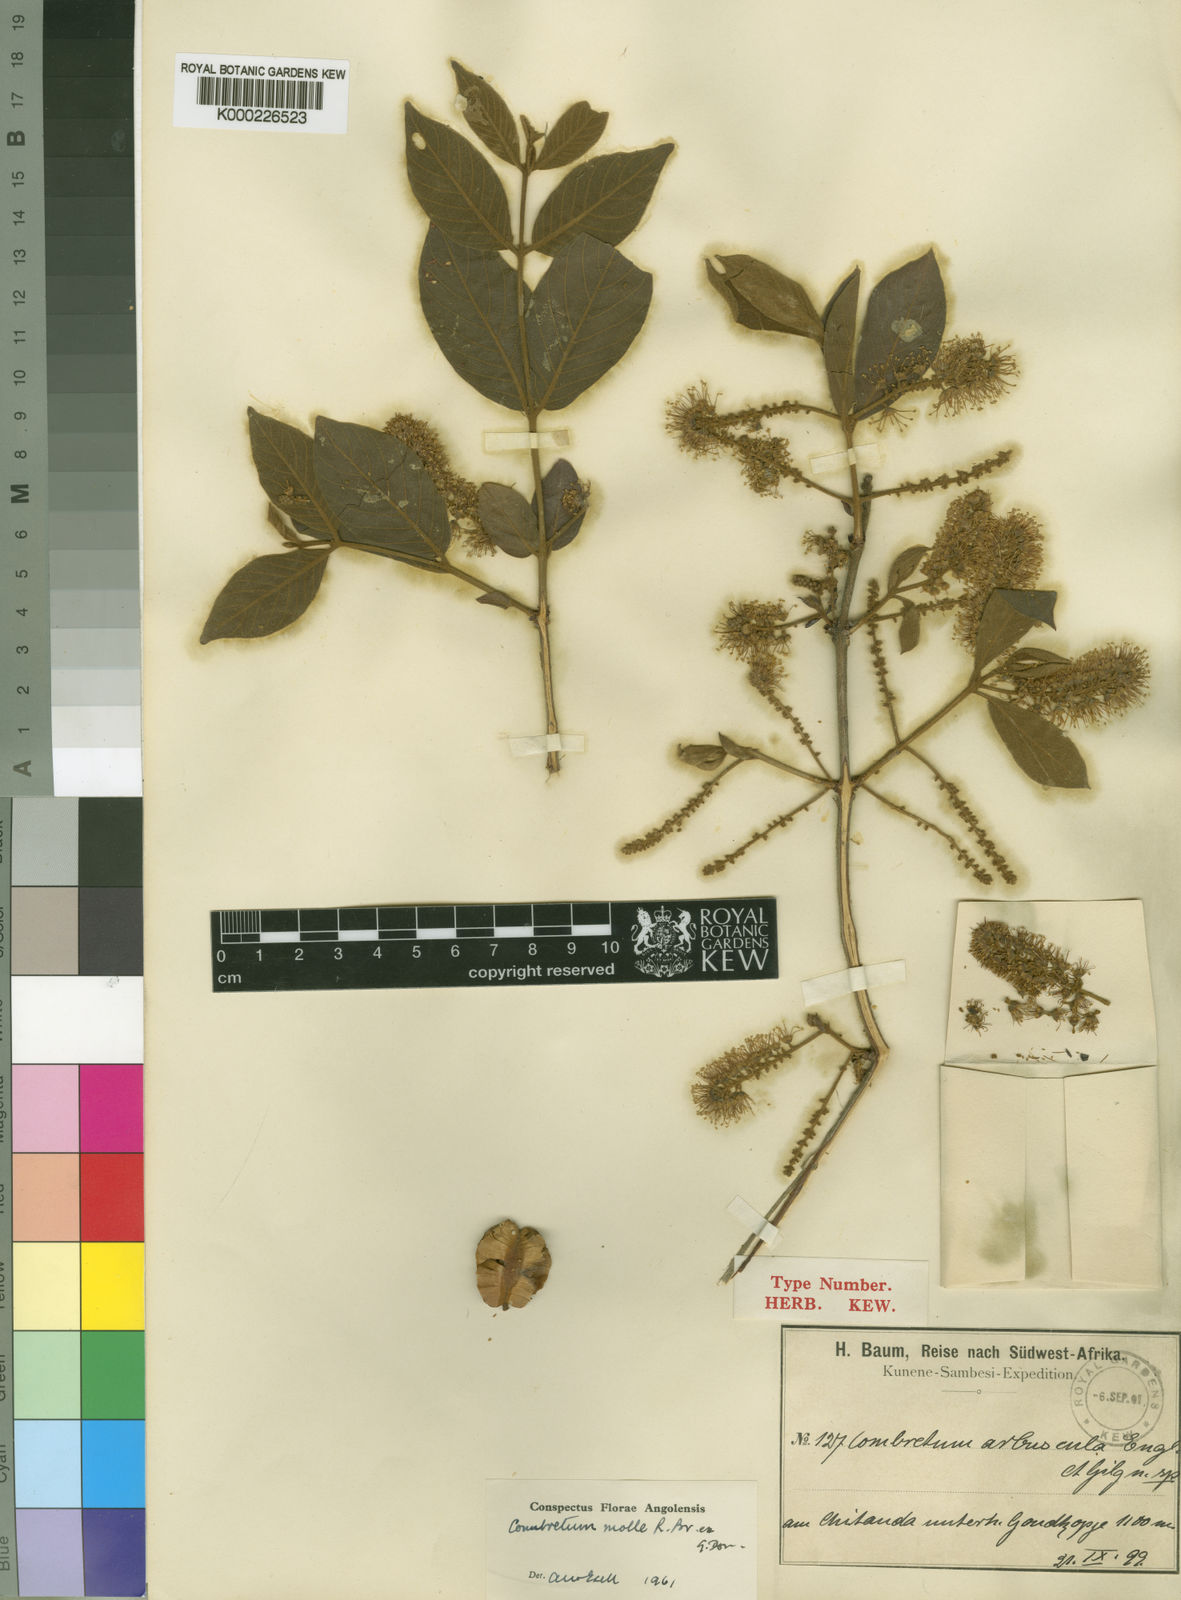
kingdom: Plantae
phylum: Tracheophyta
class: Magnoliopsida
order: Myrtales
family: Combretaceae
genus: Combretum
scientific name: Combretum molle
